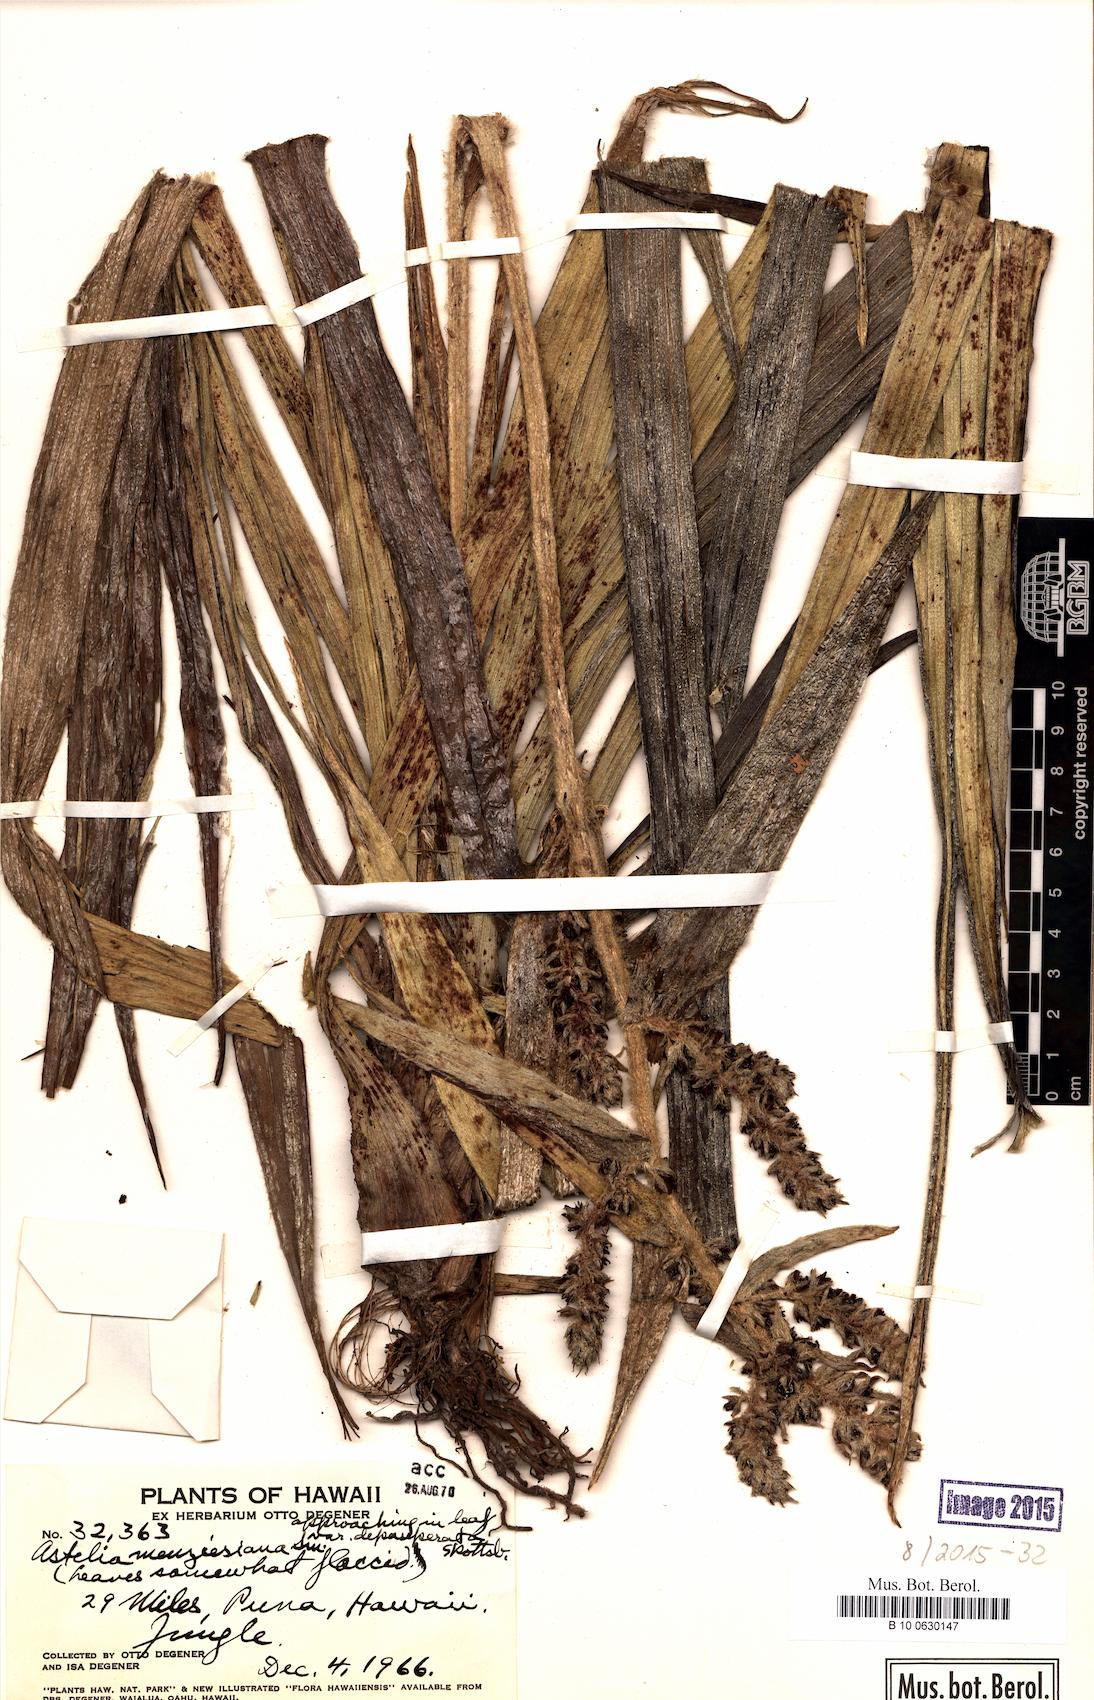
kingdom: Plantae
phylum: Tracheophyta
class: Liliopsida
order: Asparagales
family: Asteliaceae
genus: Astelia
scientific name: Astelia menziesiana
